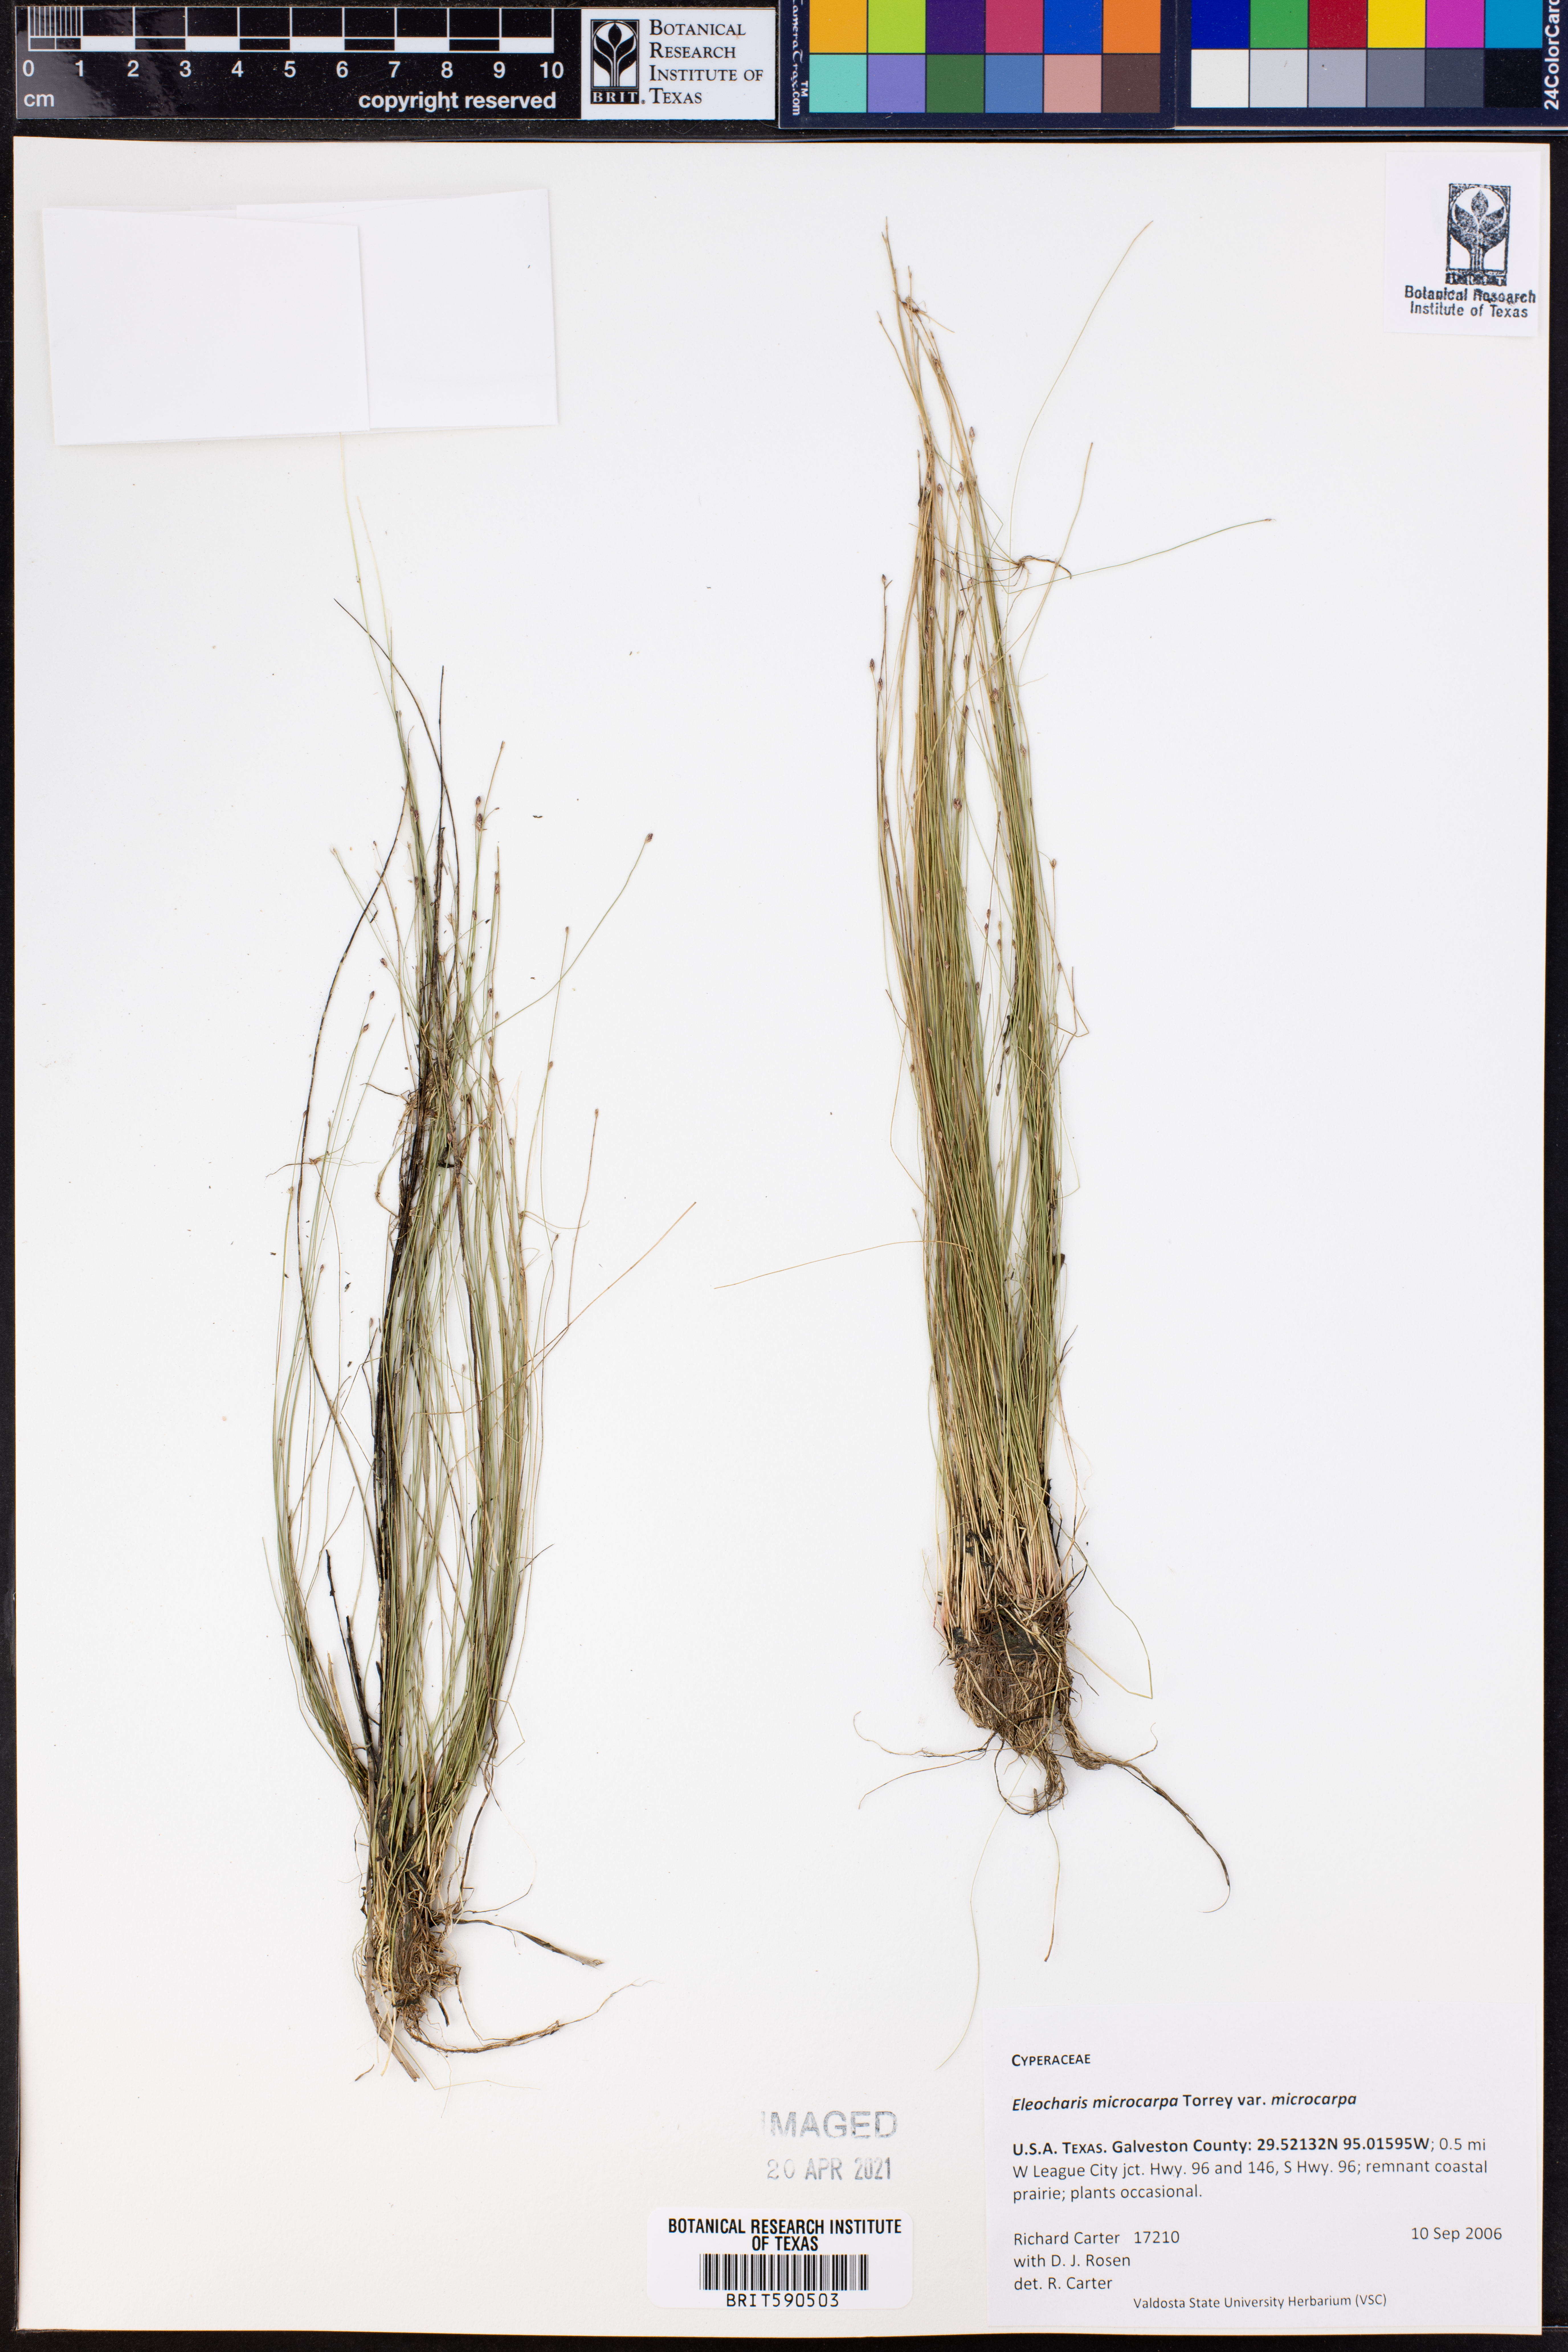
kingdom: Plantae
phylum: Tracheophyta
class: Liliopsida
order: Poales
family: Cyperaceae
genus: Eleocharis
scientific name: Eleocharis microcarpa
